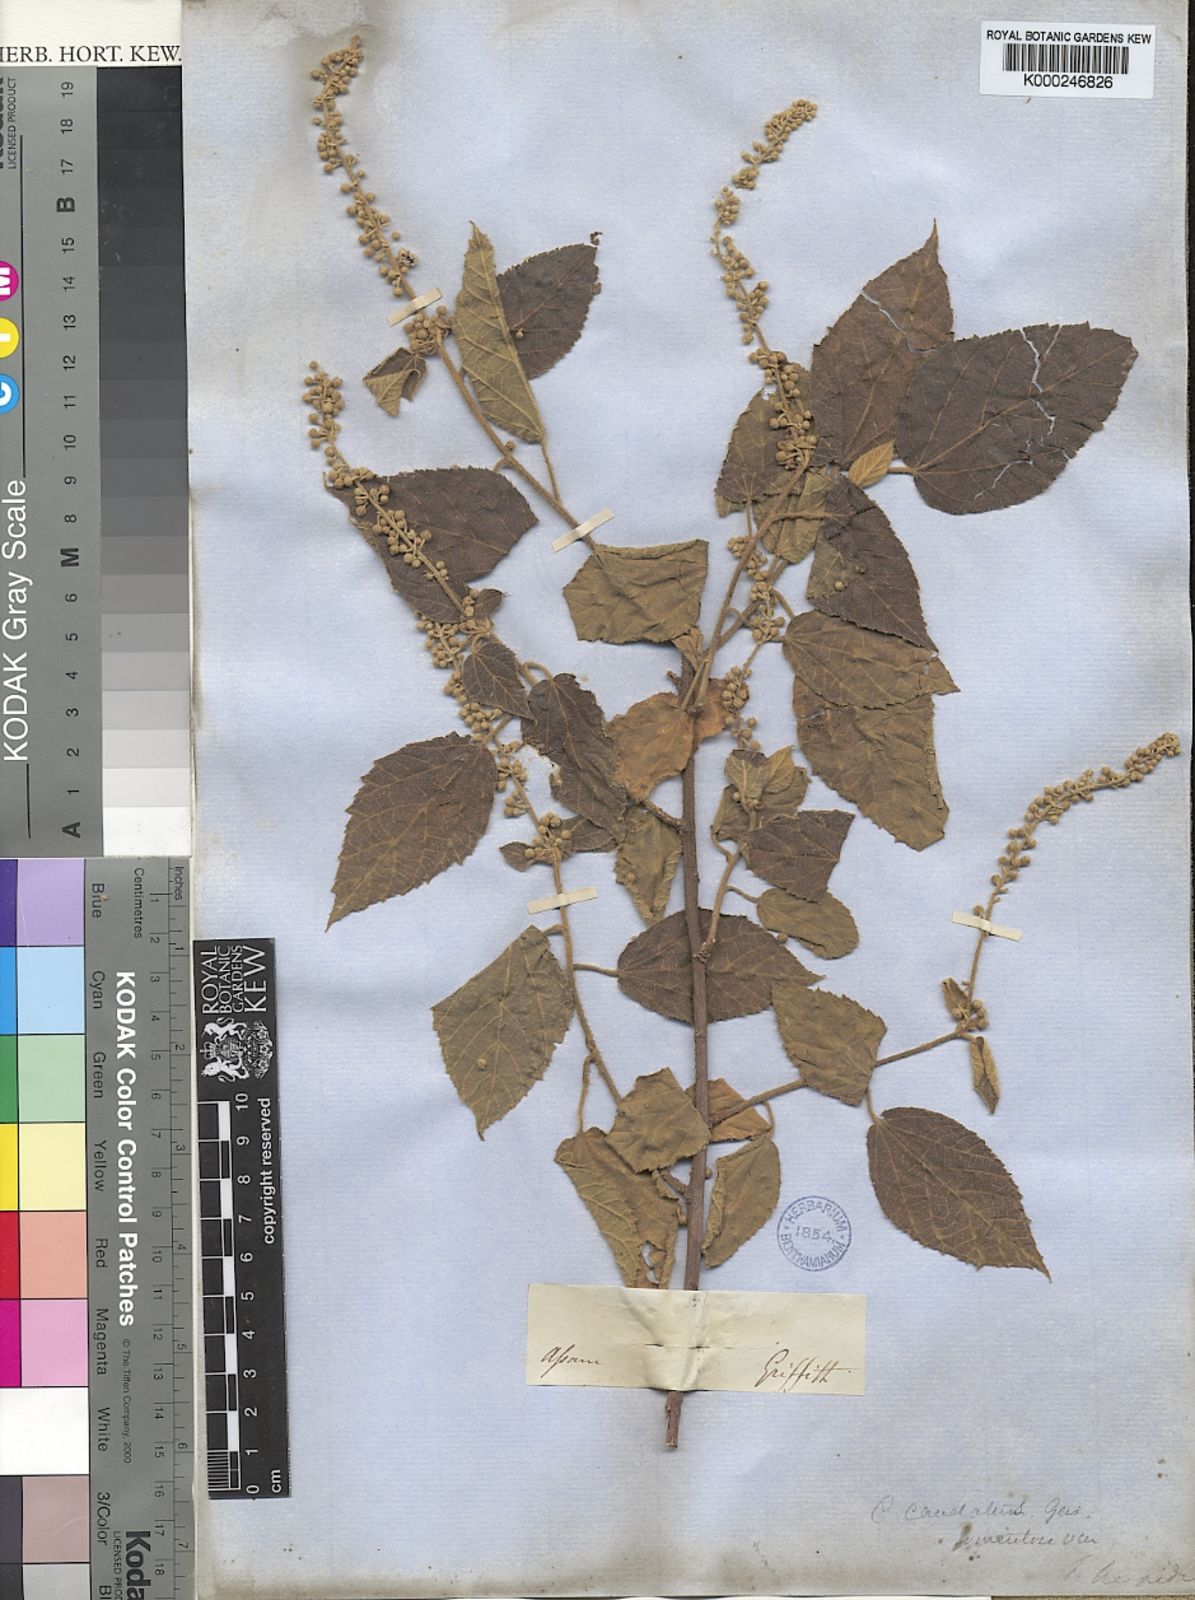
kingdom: Plantae
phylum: Tracheophyta
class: Magnoliopsida
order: Malpighiales
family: Euphorbiaceae
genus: Croton
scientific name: Croton caudatus
